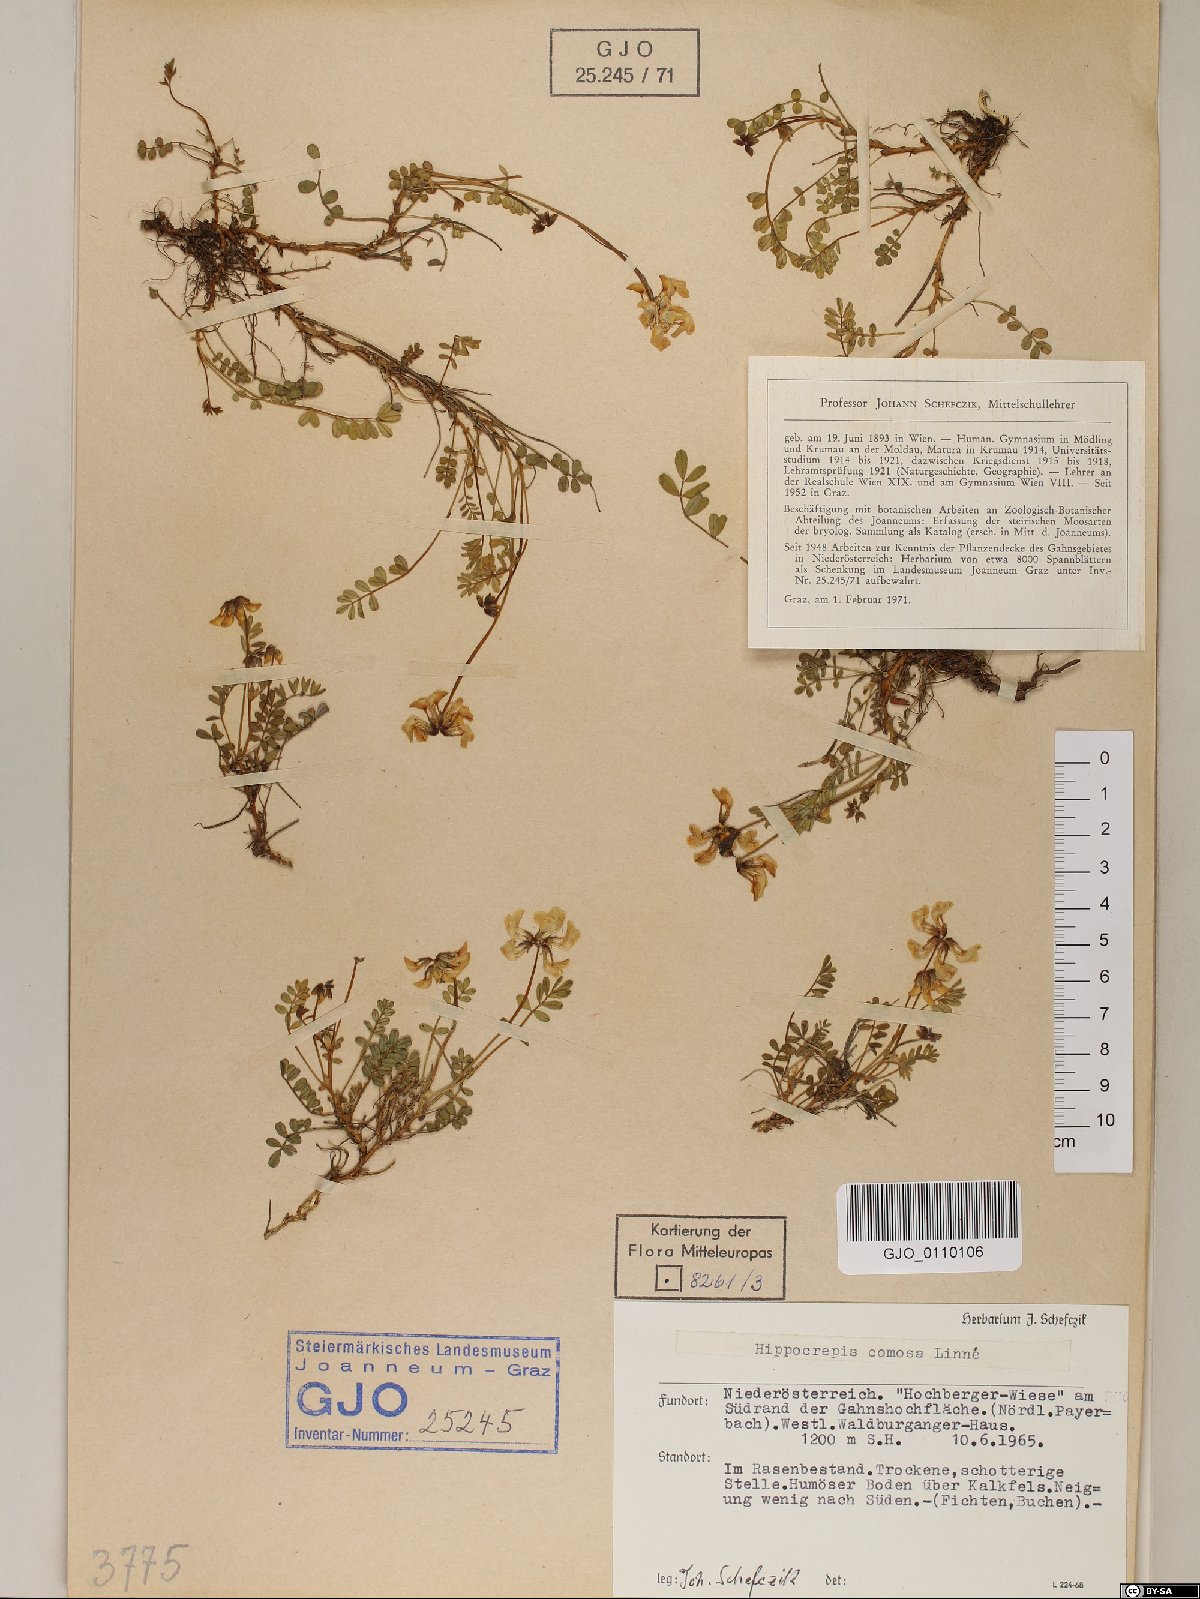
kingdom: Plantae
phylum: Tracheophyta
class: Magnoliopsida
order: Fabales
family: Fabaceae
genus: Hippocrepis
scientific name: Hippocrepis comosa
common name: Horseshoe vetch
